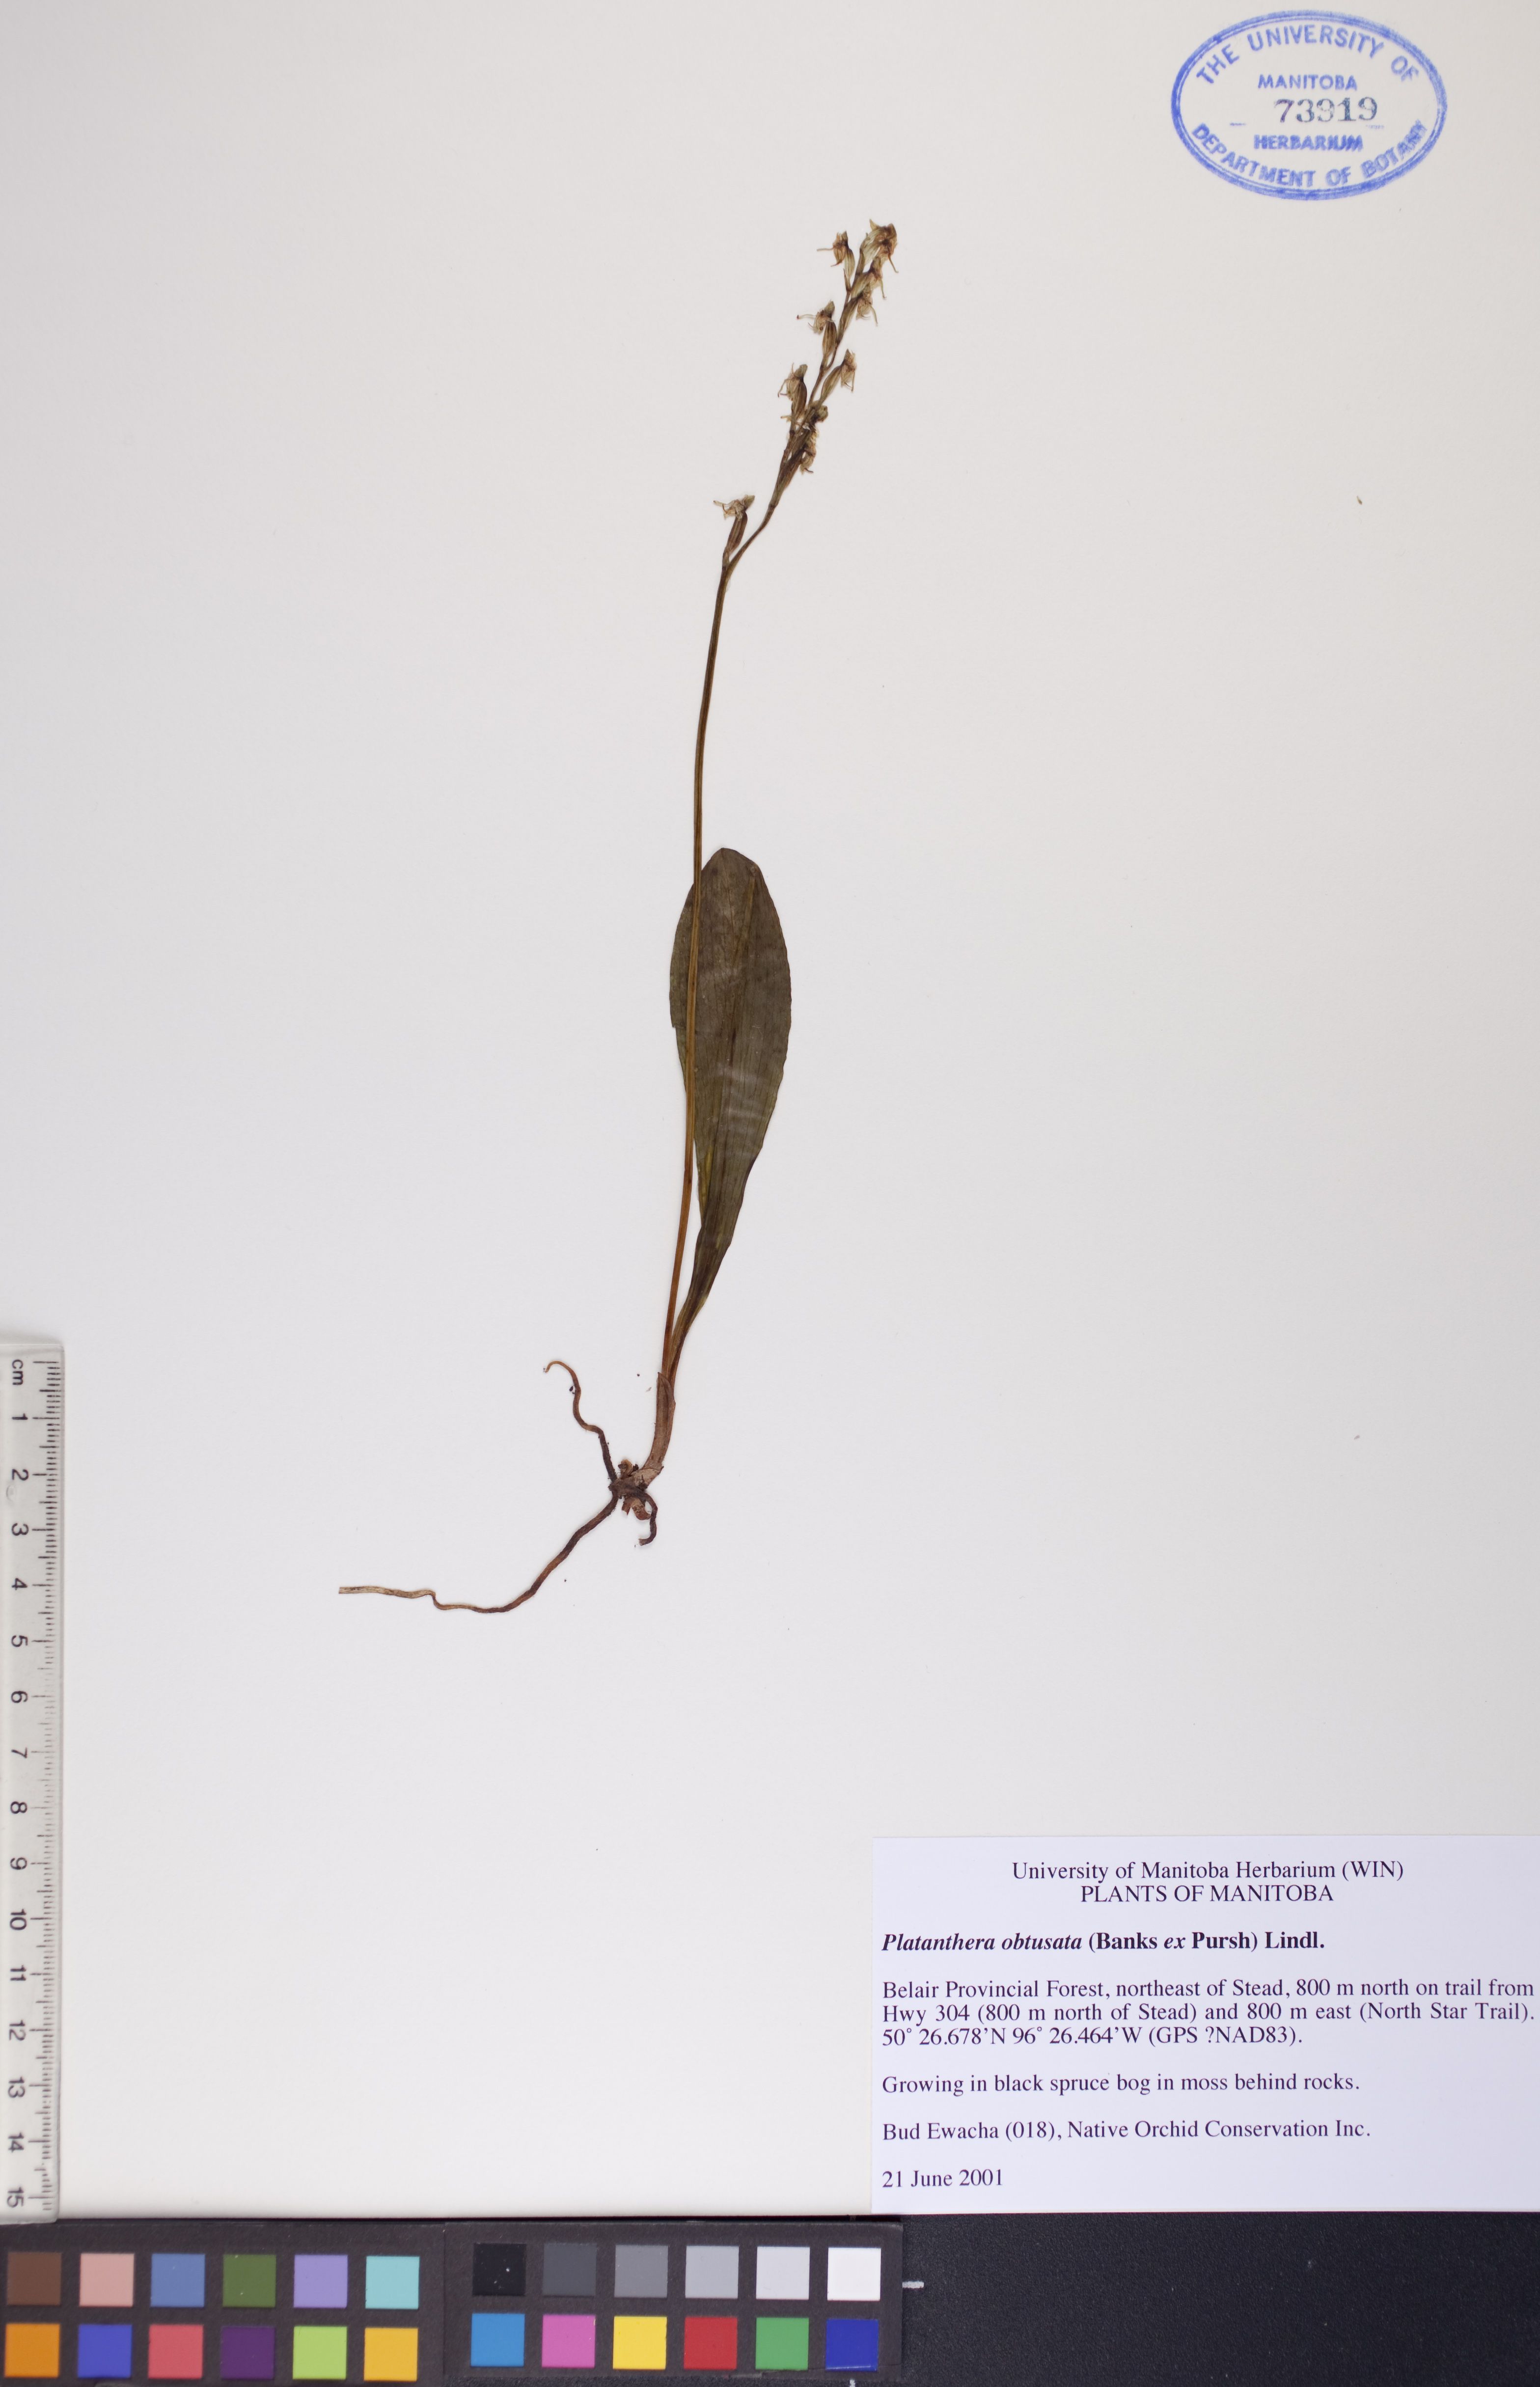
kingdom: Plantae
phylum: Tracheophyta
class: Liliopsida
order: Asparagales
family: Orchidaceae
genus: Platanthera
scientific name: Platanthera obtusata
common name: Blunt bog orchid
